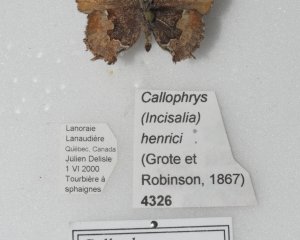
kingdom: Animalia
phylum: Arthropoda
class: Insecta
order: Lepidoptera
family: Lycaenidae
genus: Incisalia
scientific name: Incisalia henrici
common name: Henry's Elfin
